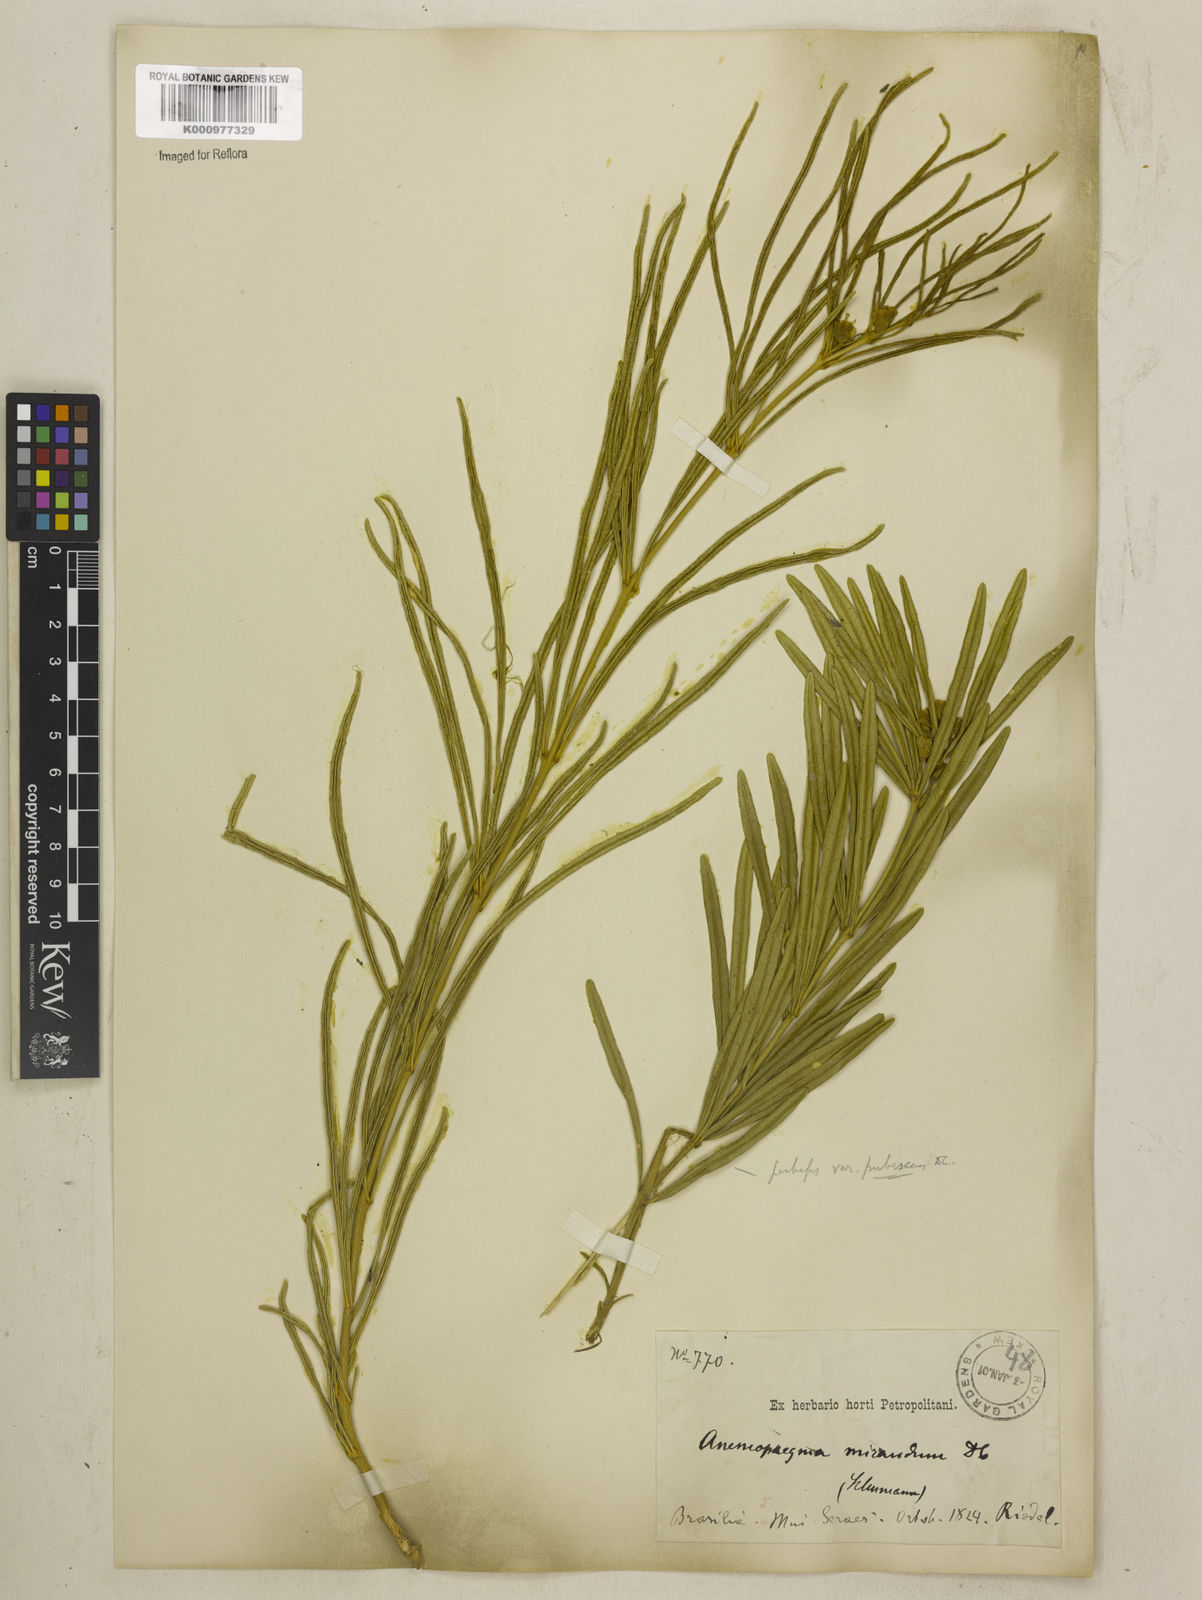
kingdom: Plantae
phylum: Tracheophyta
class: Magnoliopsida
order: Lamiales
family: Bignoniaceae
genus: Anemopaegma
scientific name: Anemopaegma arvense
